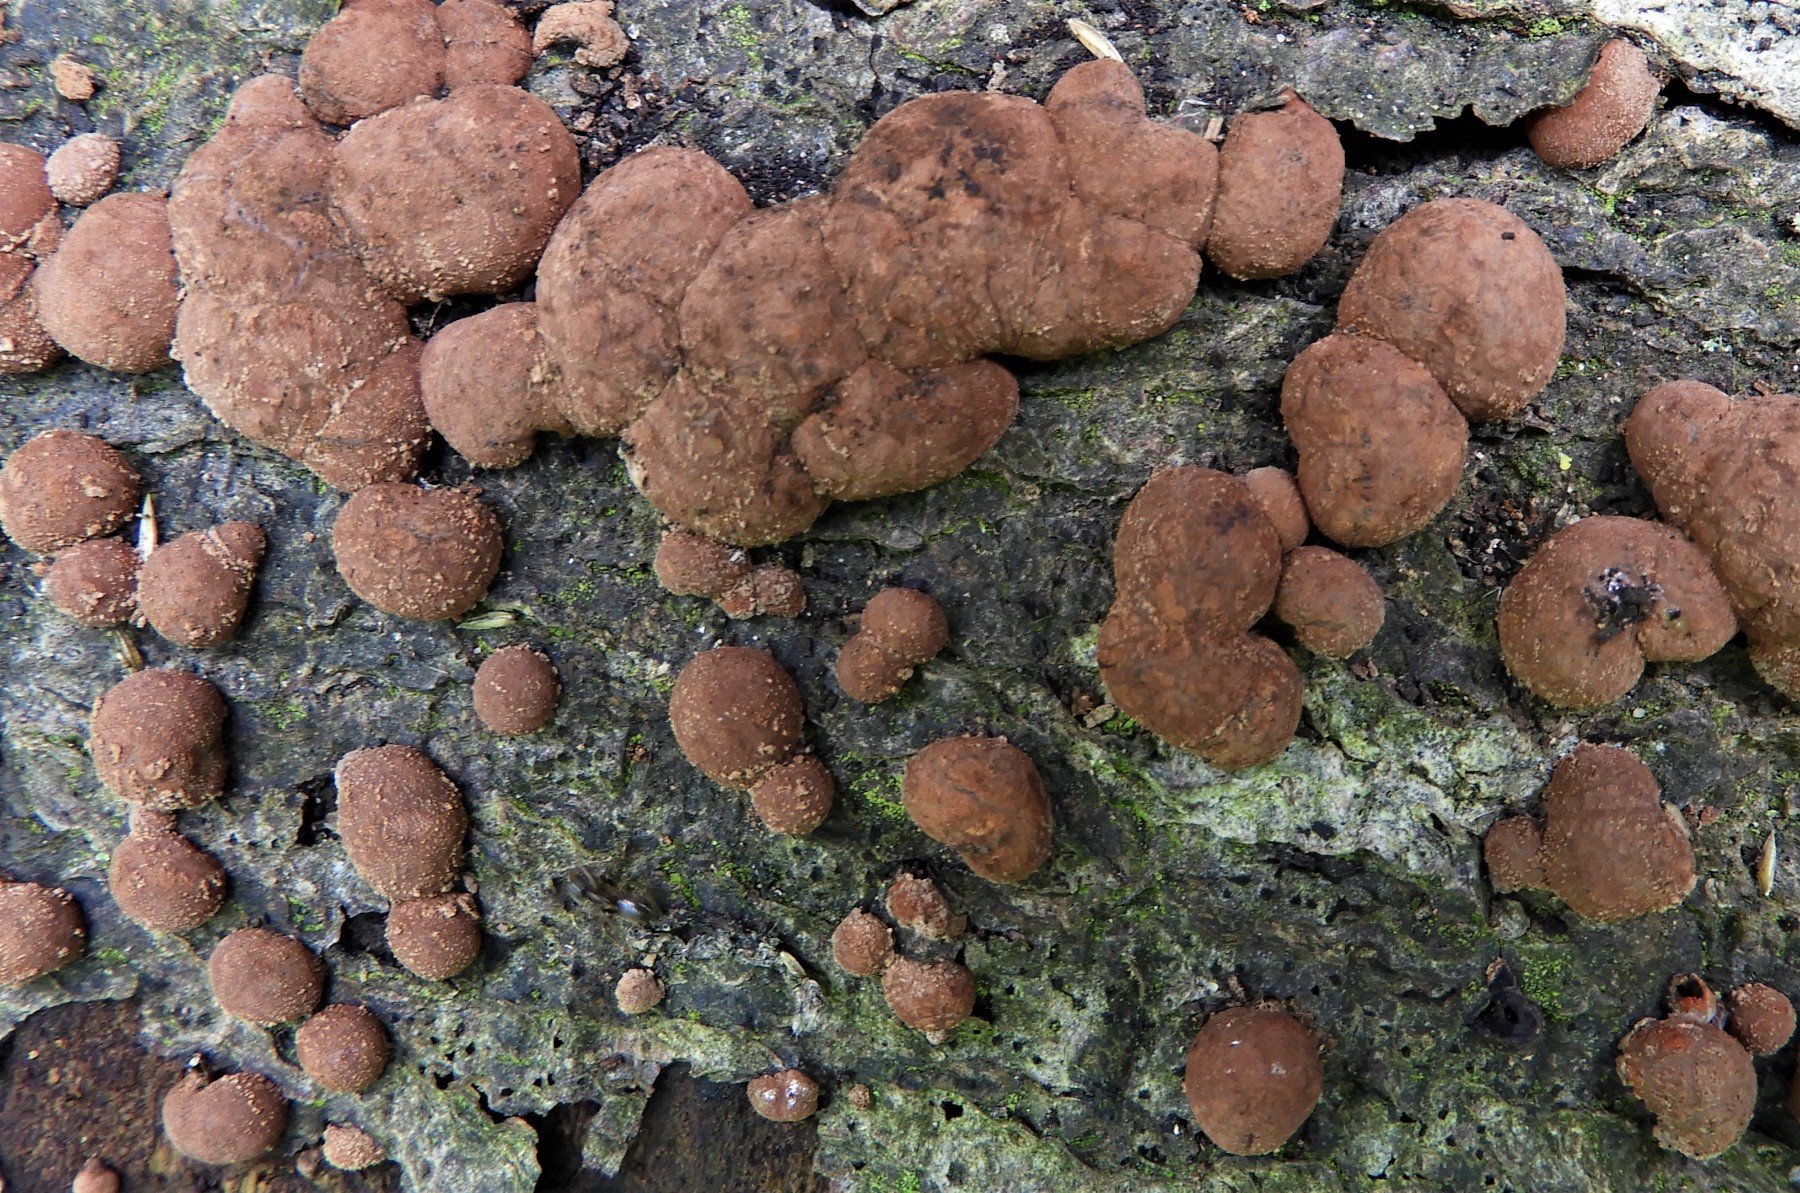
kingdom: Fungi
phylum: Ascomycota
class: Sordariomycetes
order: Xylariales
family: Hypoxylaceae
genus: Hypoxylon
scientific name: Hypoxylon fragiforme
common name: kuljordbær
